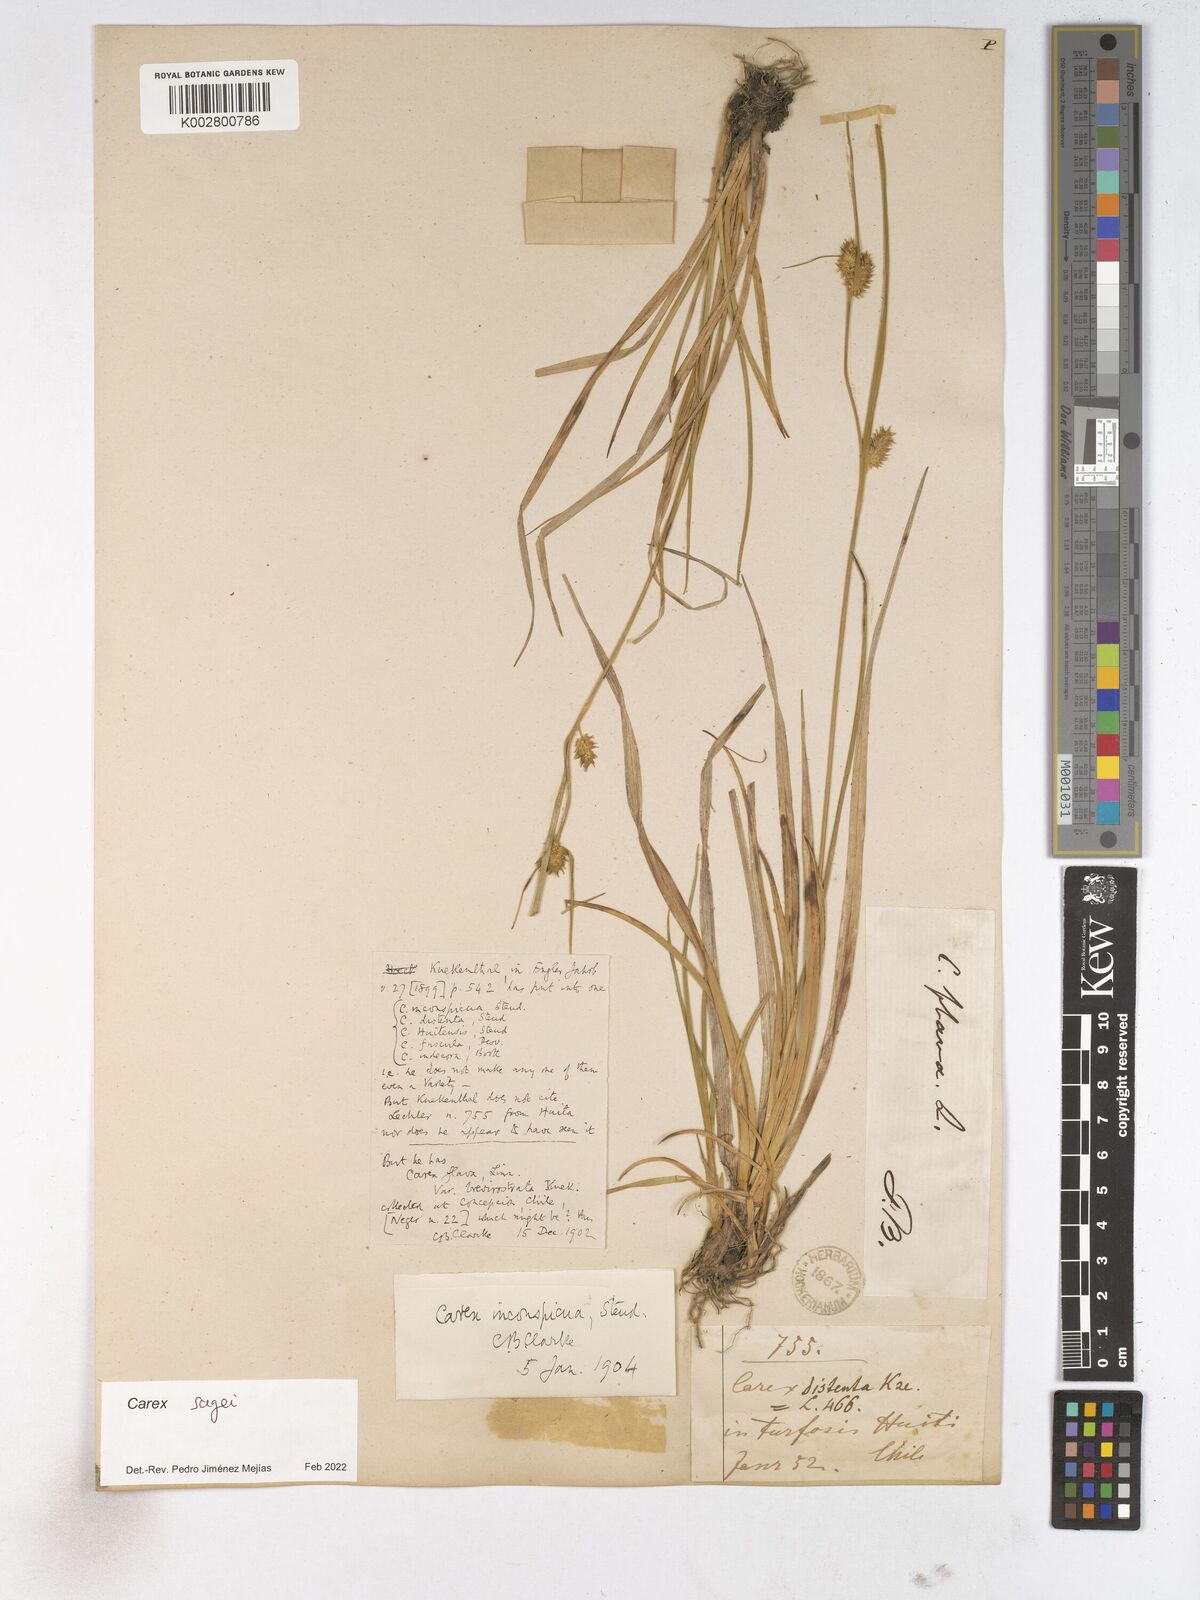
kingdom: Plantae
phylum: Tracheophyta
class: Liliopsida
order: Poales
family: Cyperaceae
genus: Carex
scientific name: Carex sagei
